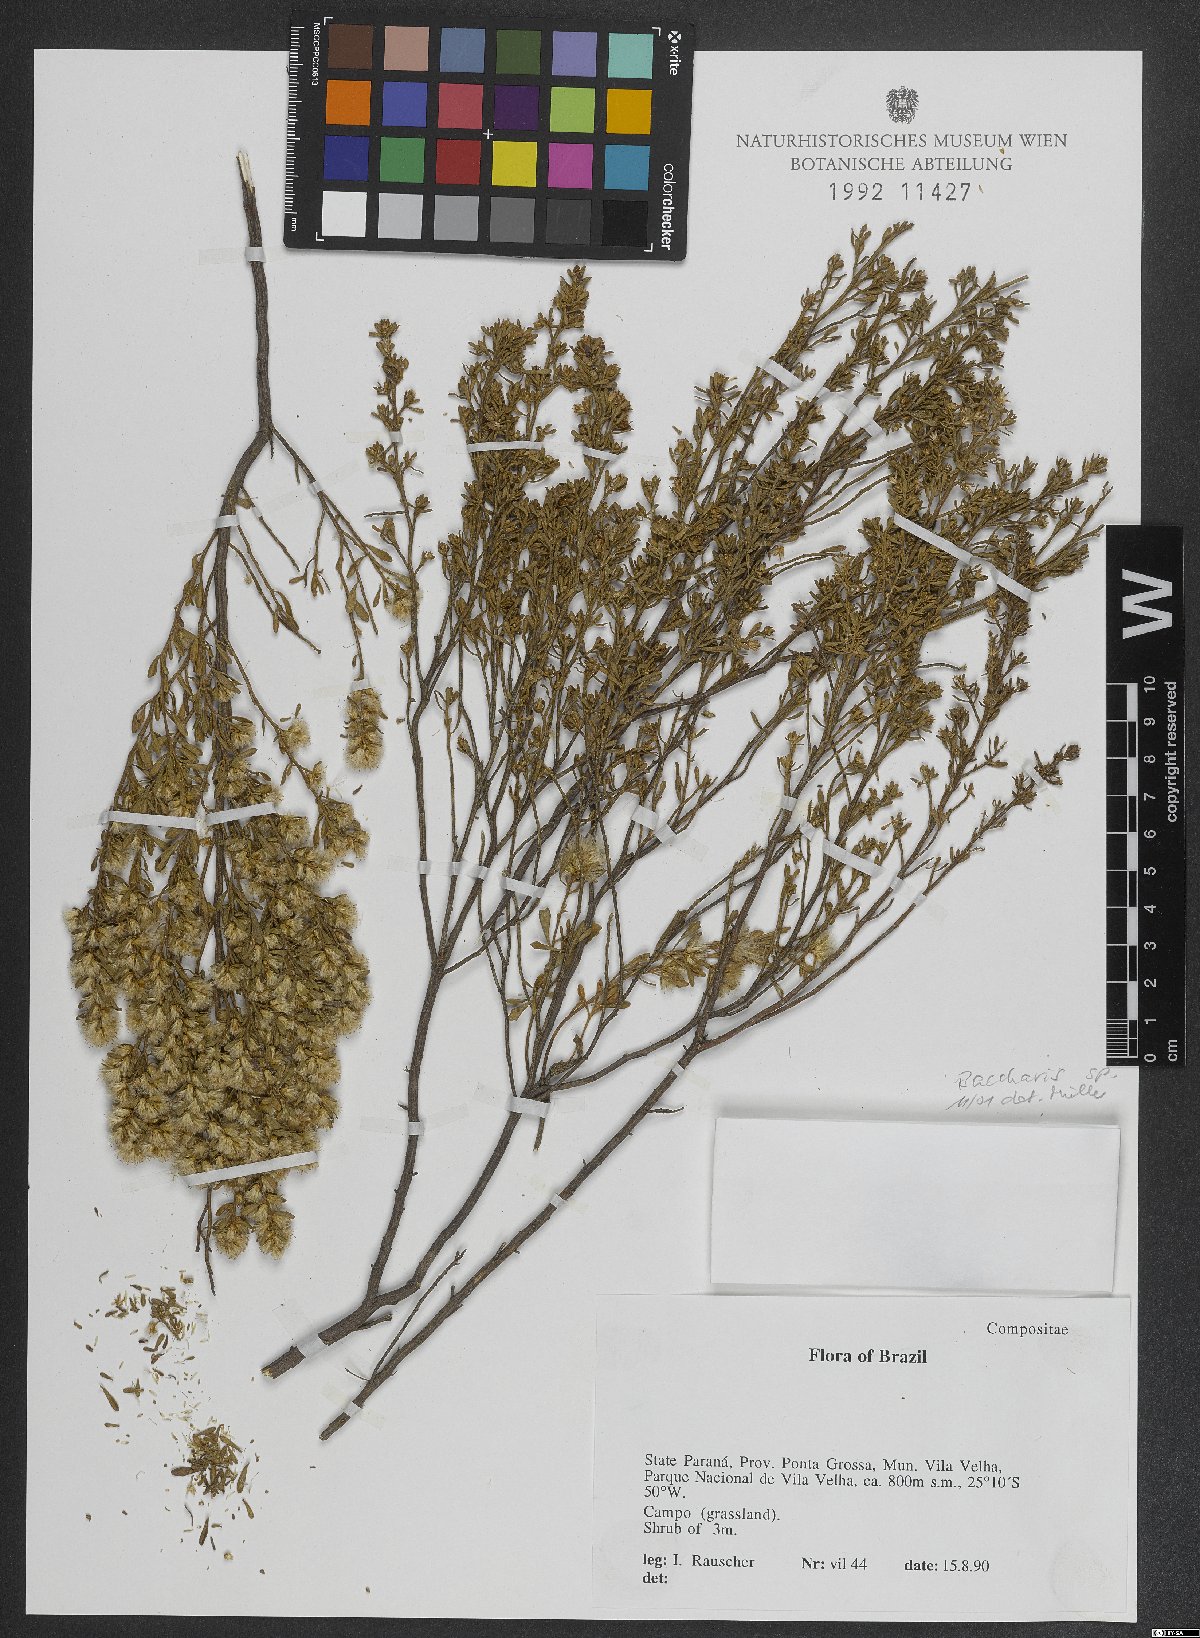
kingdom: Plantae
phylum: Tracheophyta
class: Magnoliopsida
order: Asterales
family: Asteraceae
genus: Baccharis
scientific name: Baccharis
